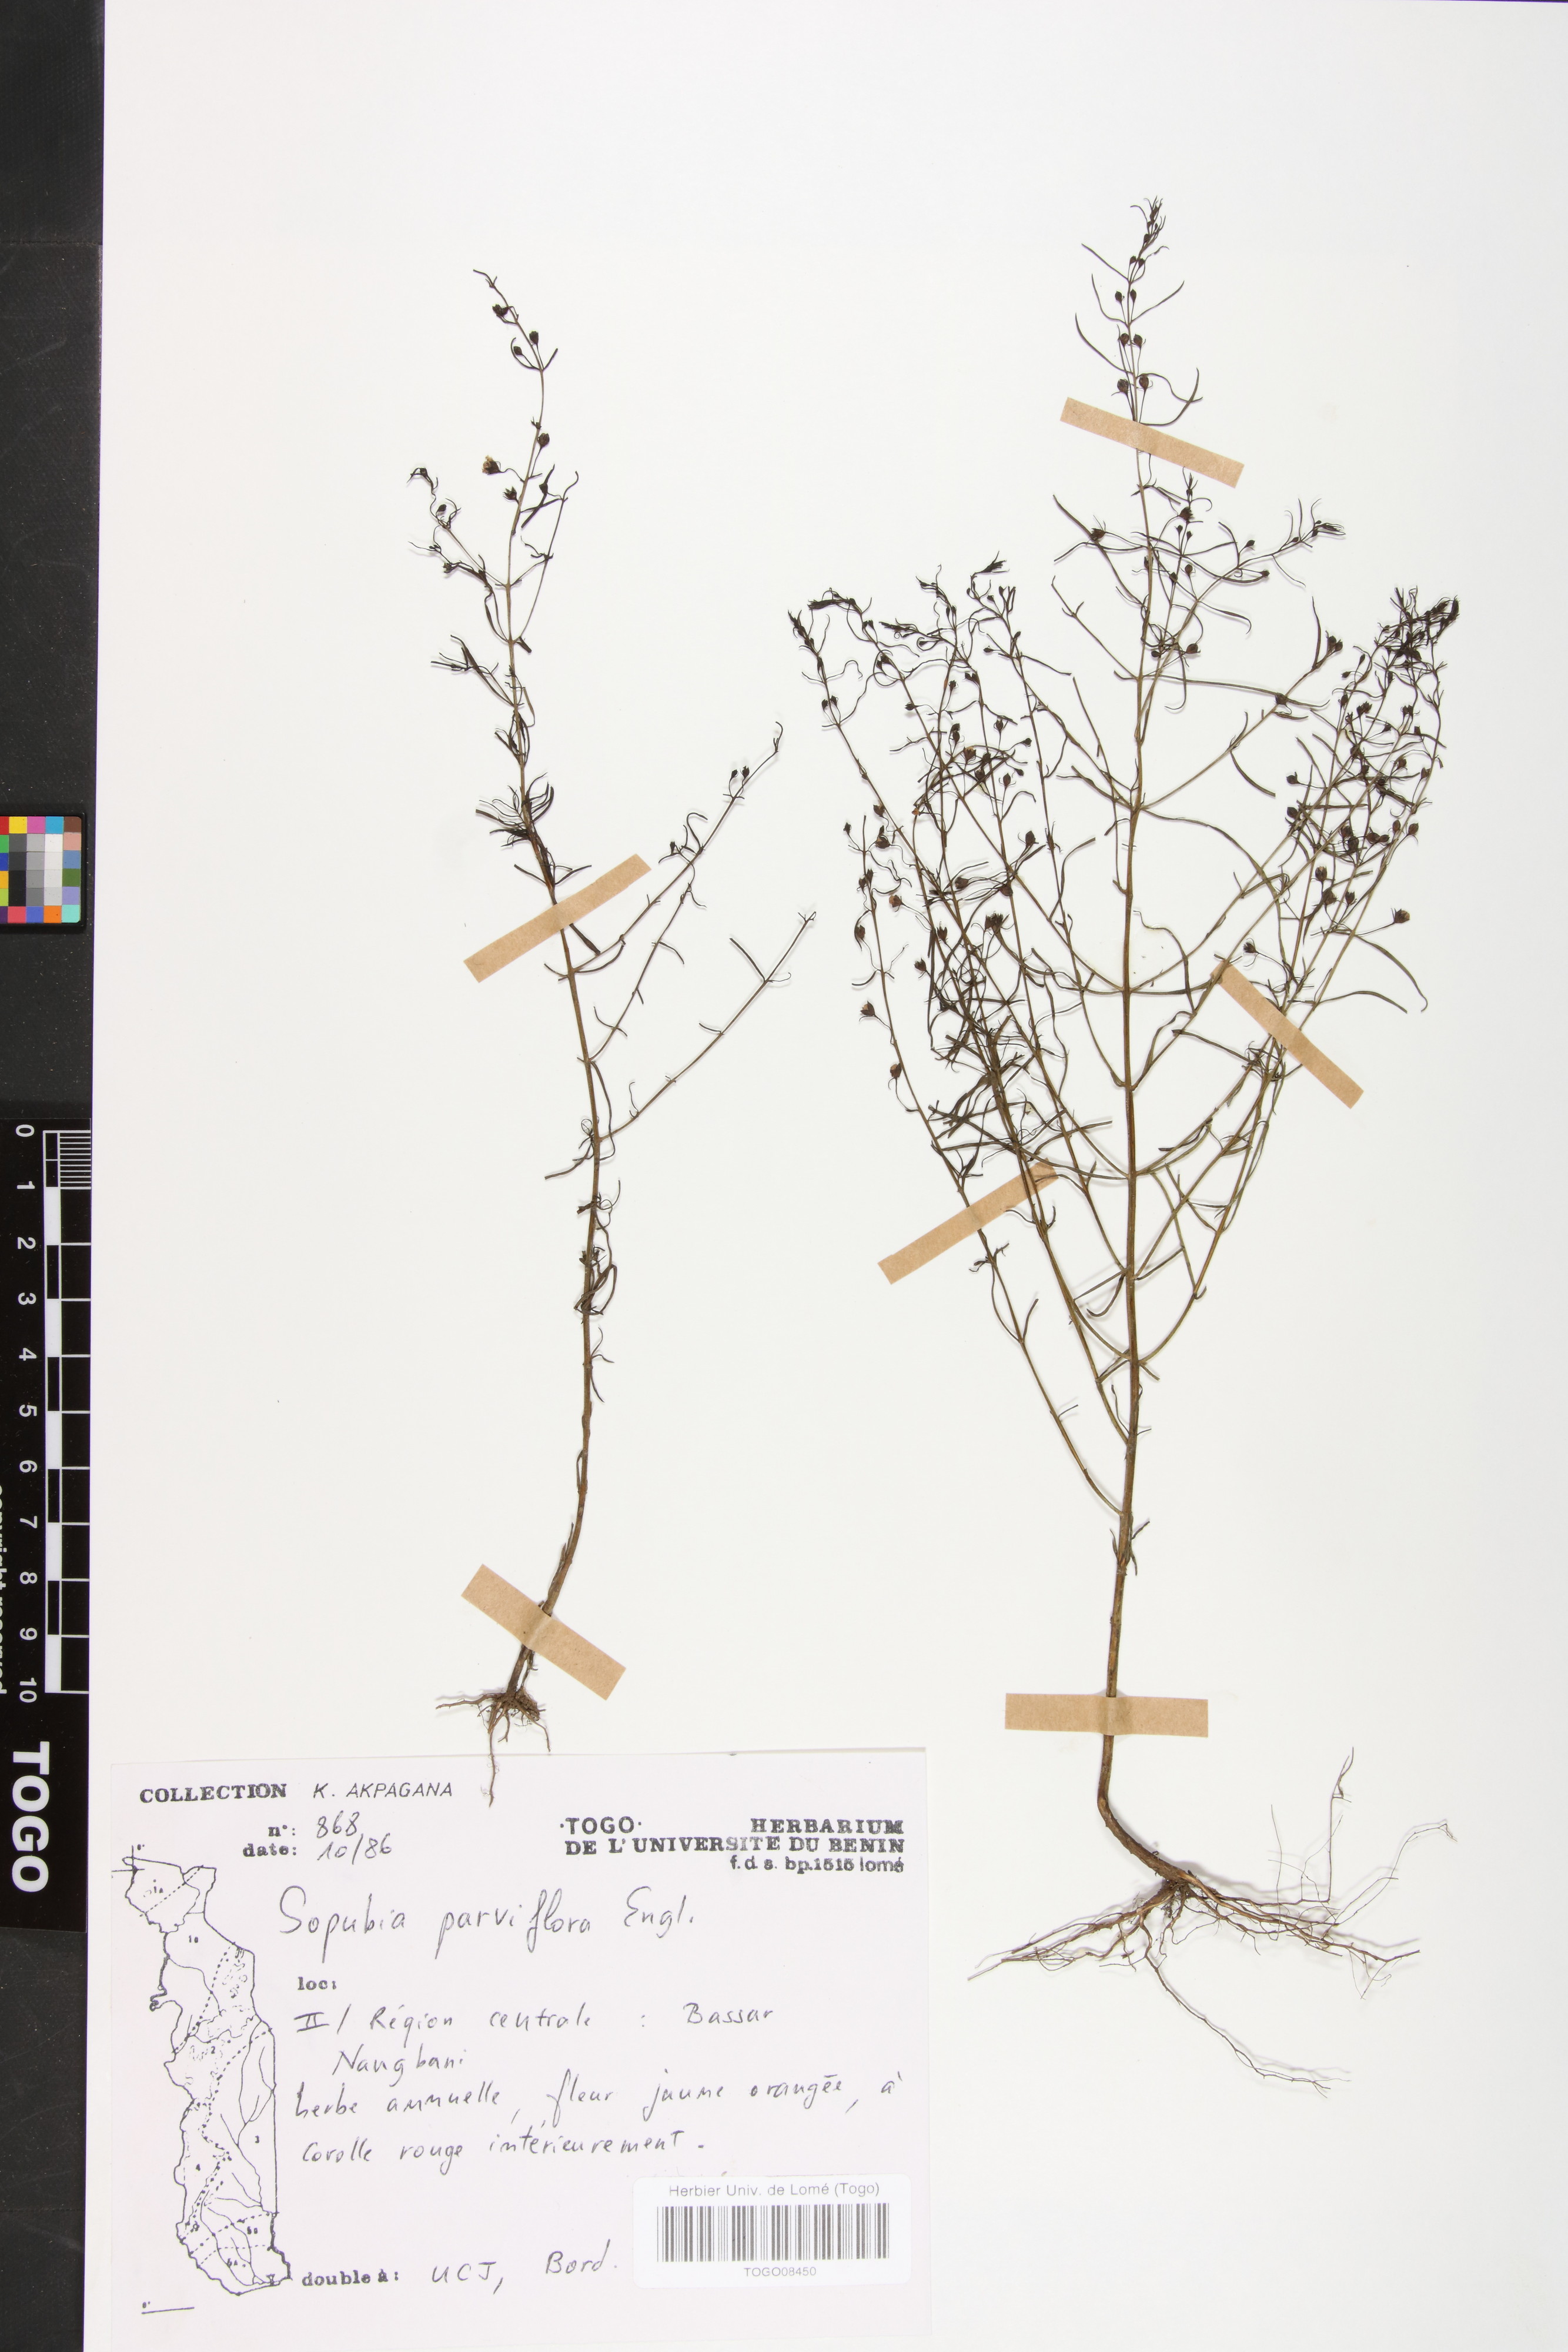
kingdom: Plantae
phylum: Tracheophyta
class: Magnoliopsida
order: Lamiales
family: Orobanchaceae
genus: Sopubia
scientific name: Sopubia parviflora
